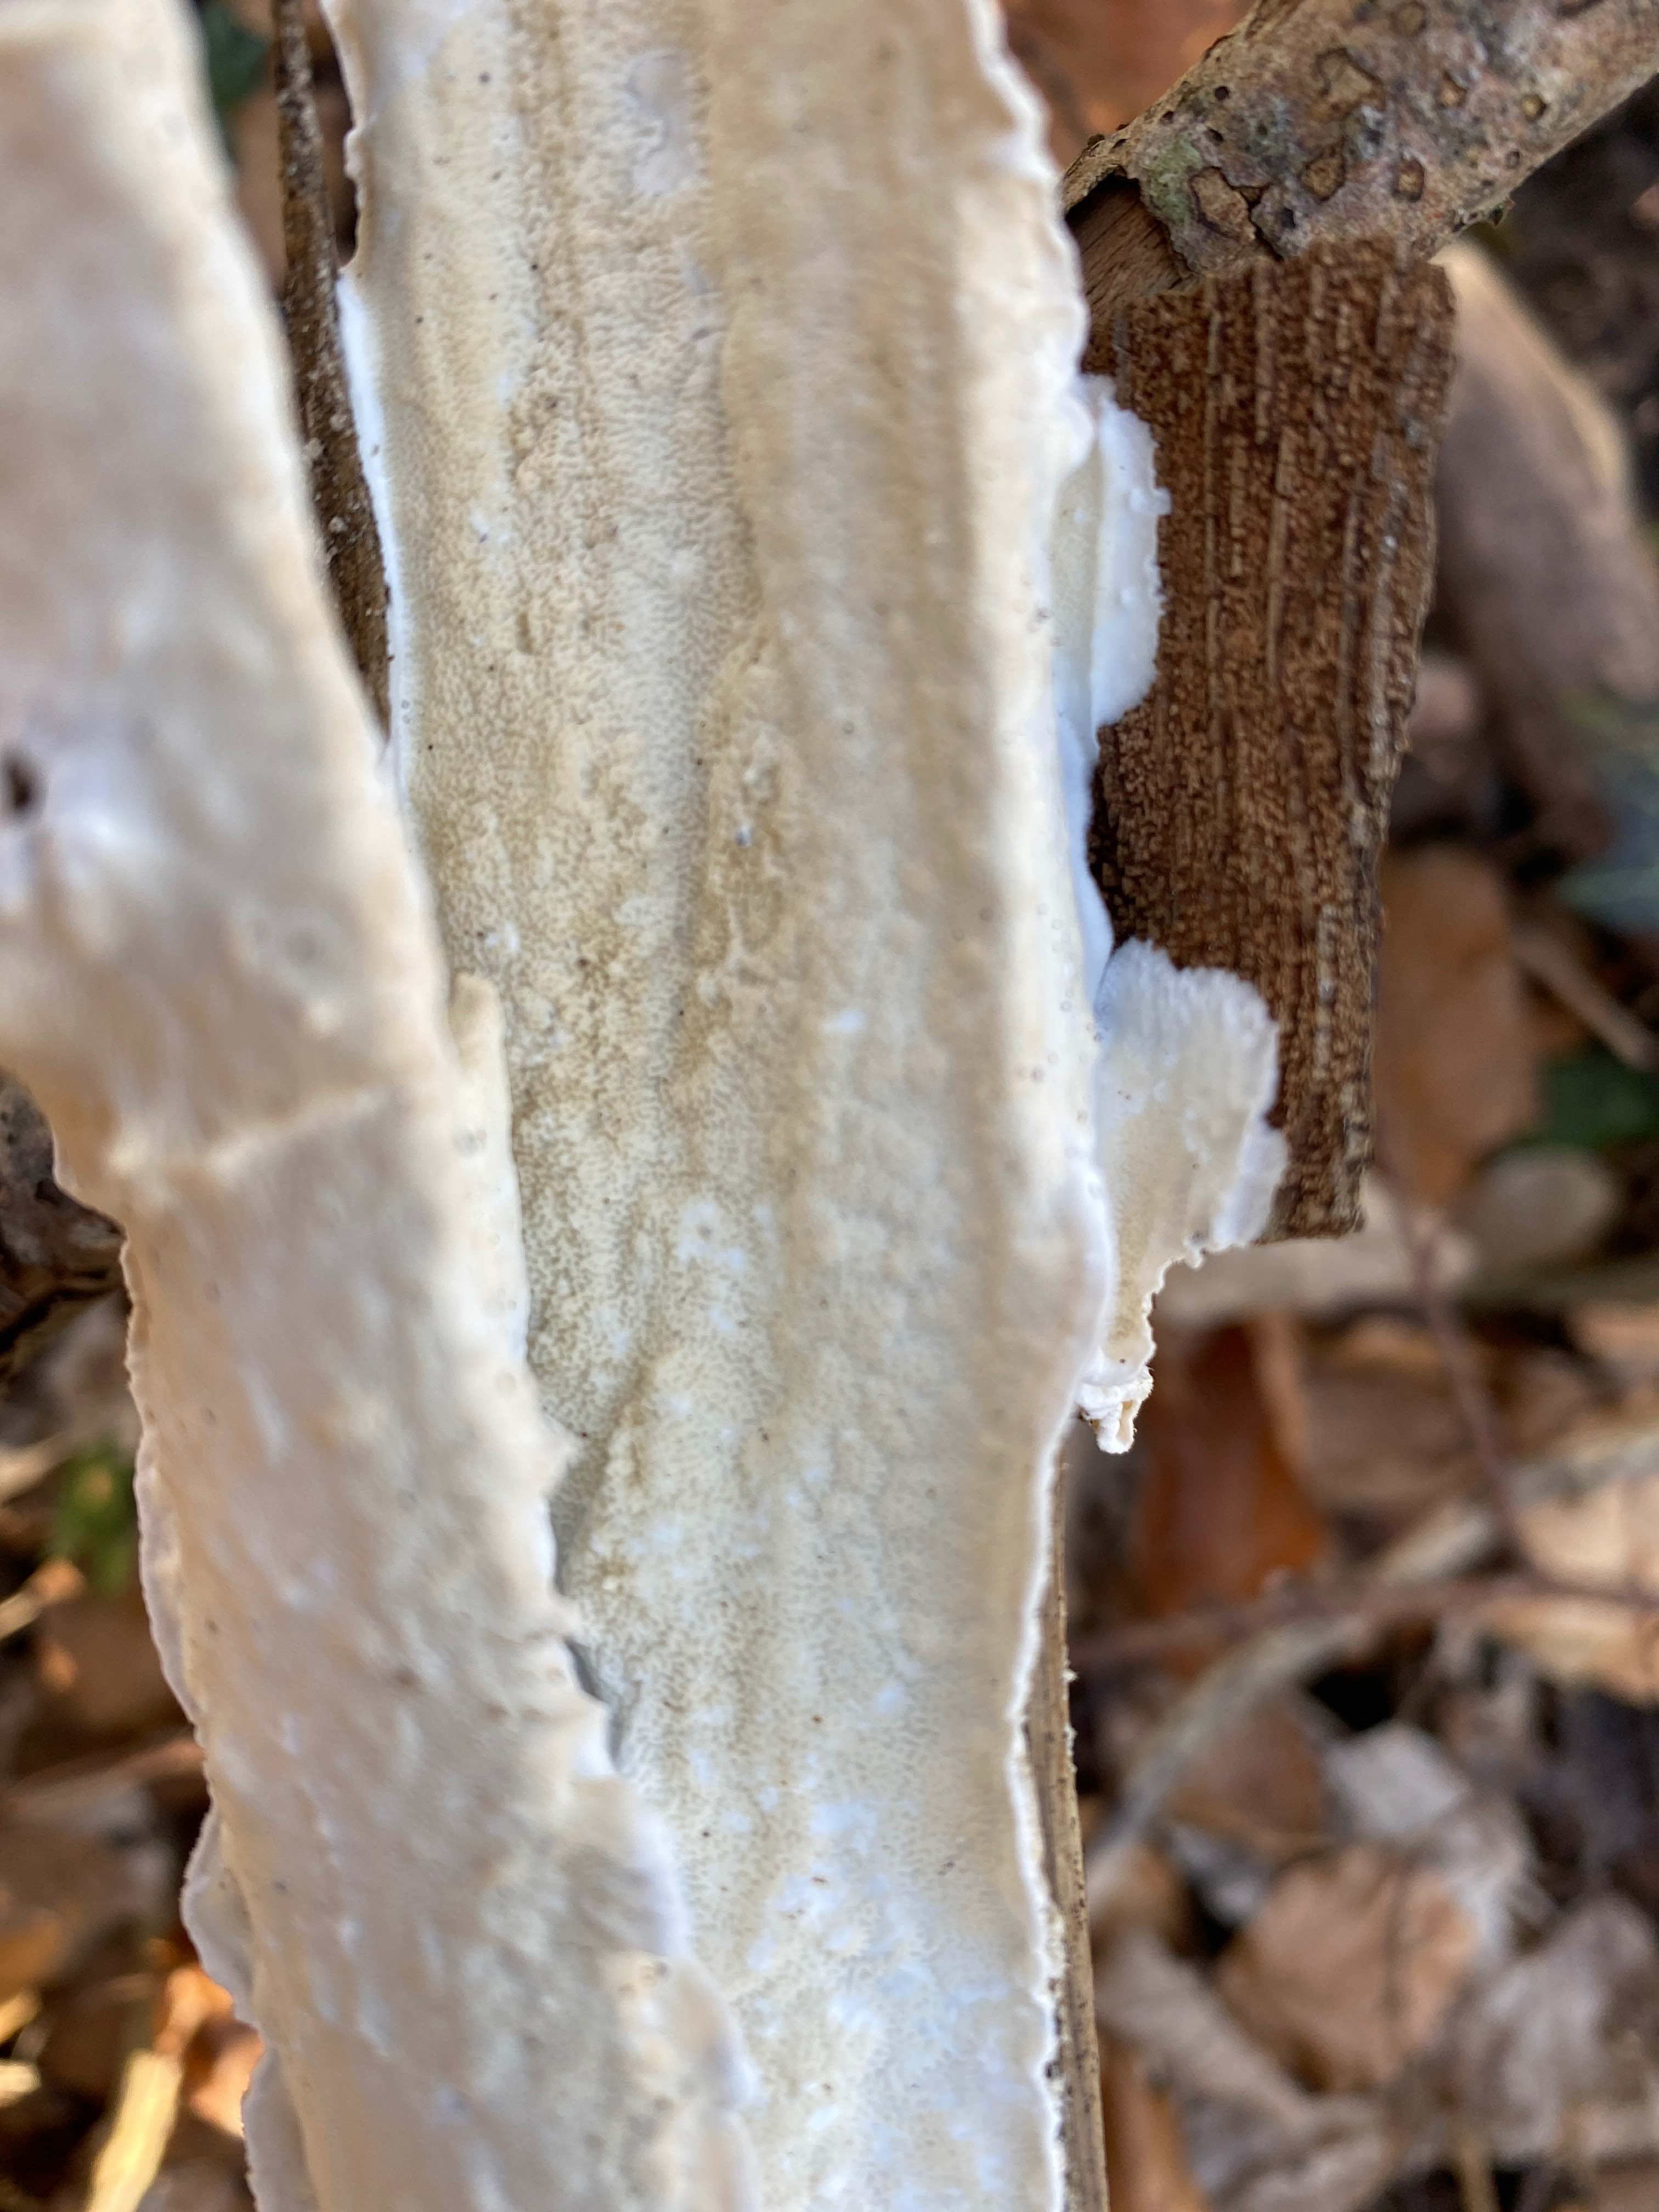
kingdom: Fungi
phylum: Basidiomycota
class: Agaricomycetes
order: Polyporales
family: Irpicaceae
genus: Byssomerulius
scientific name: Byssomerulius corium
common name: læder-åresvamp
